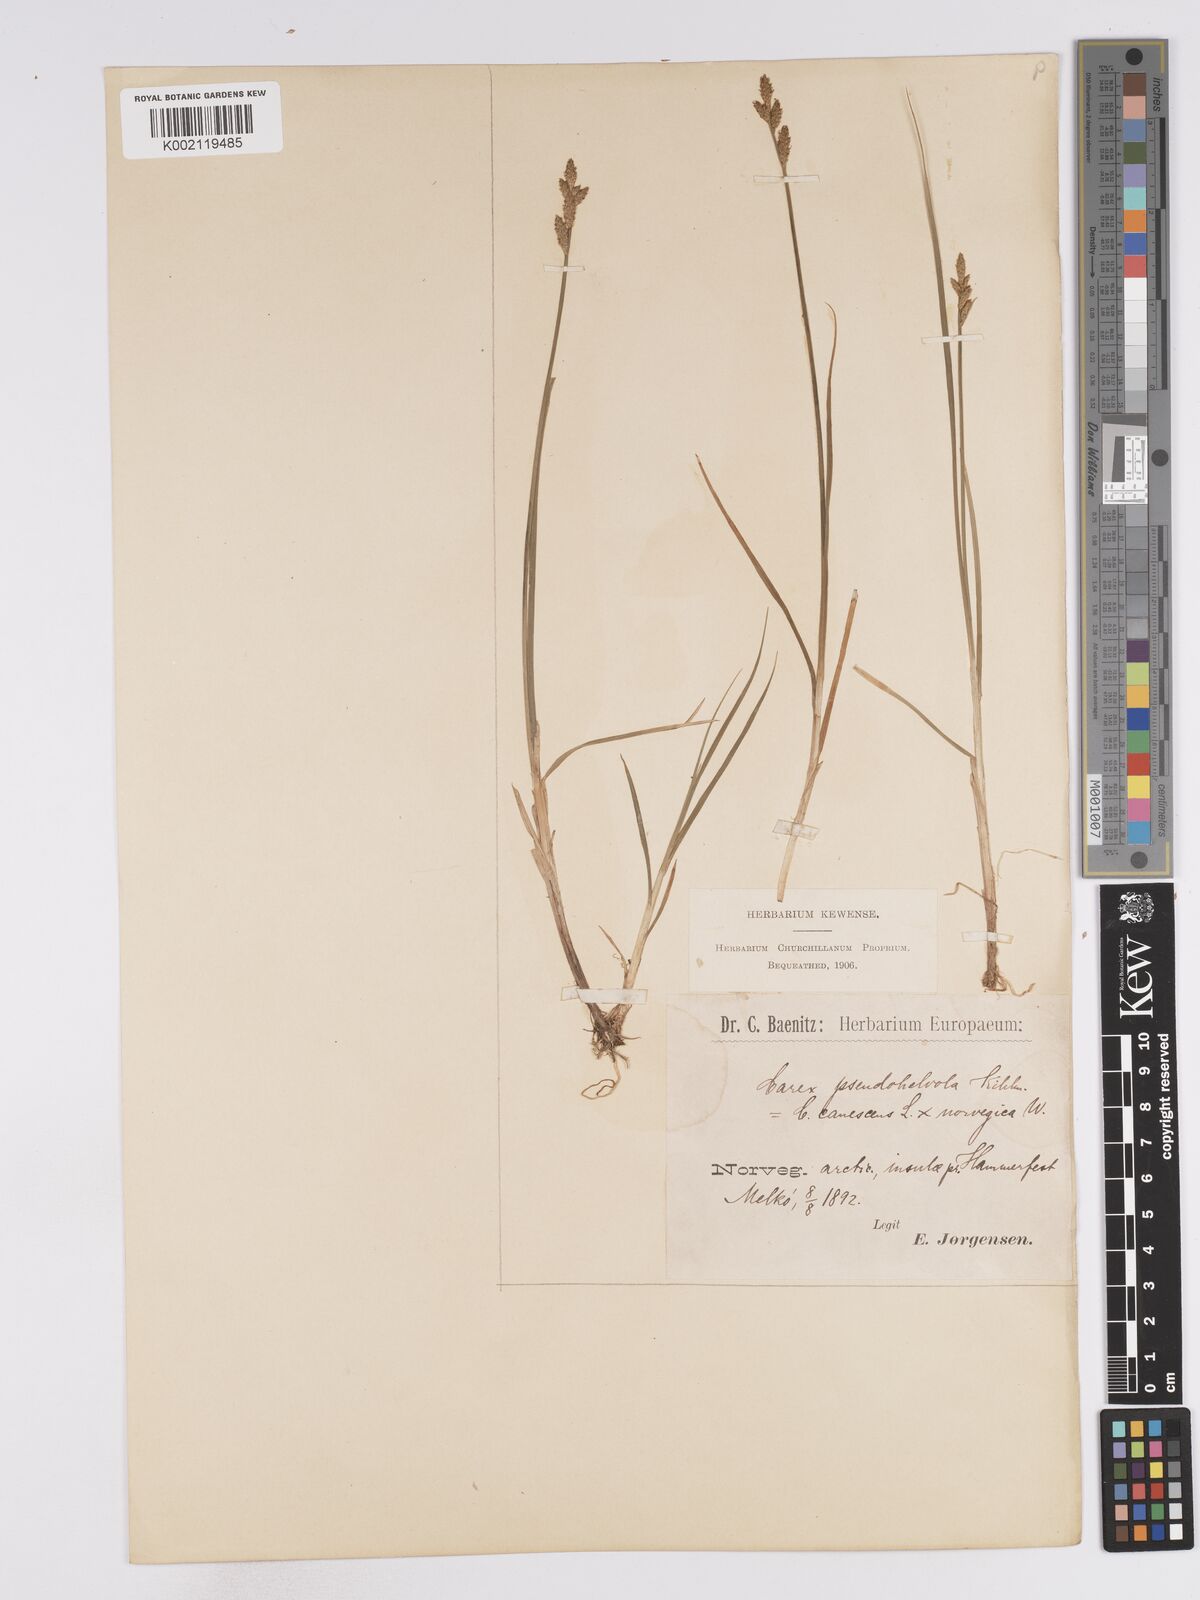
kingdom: Plantae
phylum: Tracheophyta
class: Liliopsida
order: Poales
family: Cyperaceae
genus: Carex
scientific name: Carex mackenziei
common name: Mackenzie's sedge
